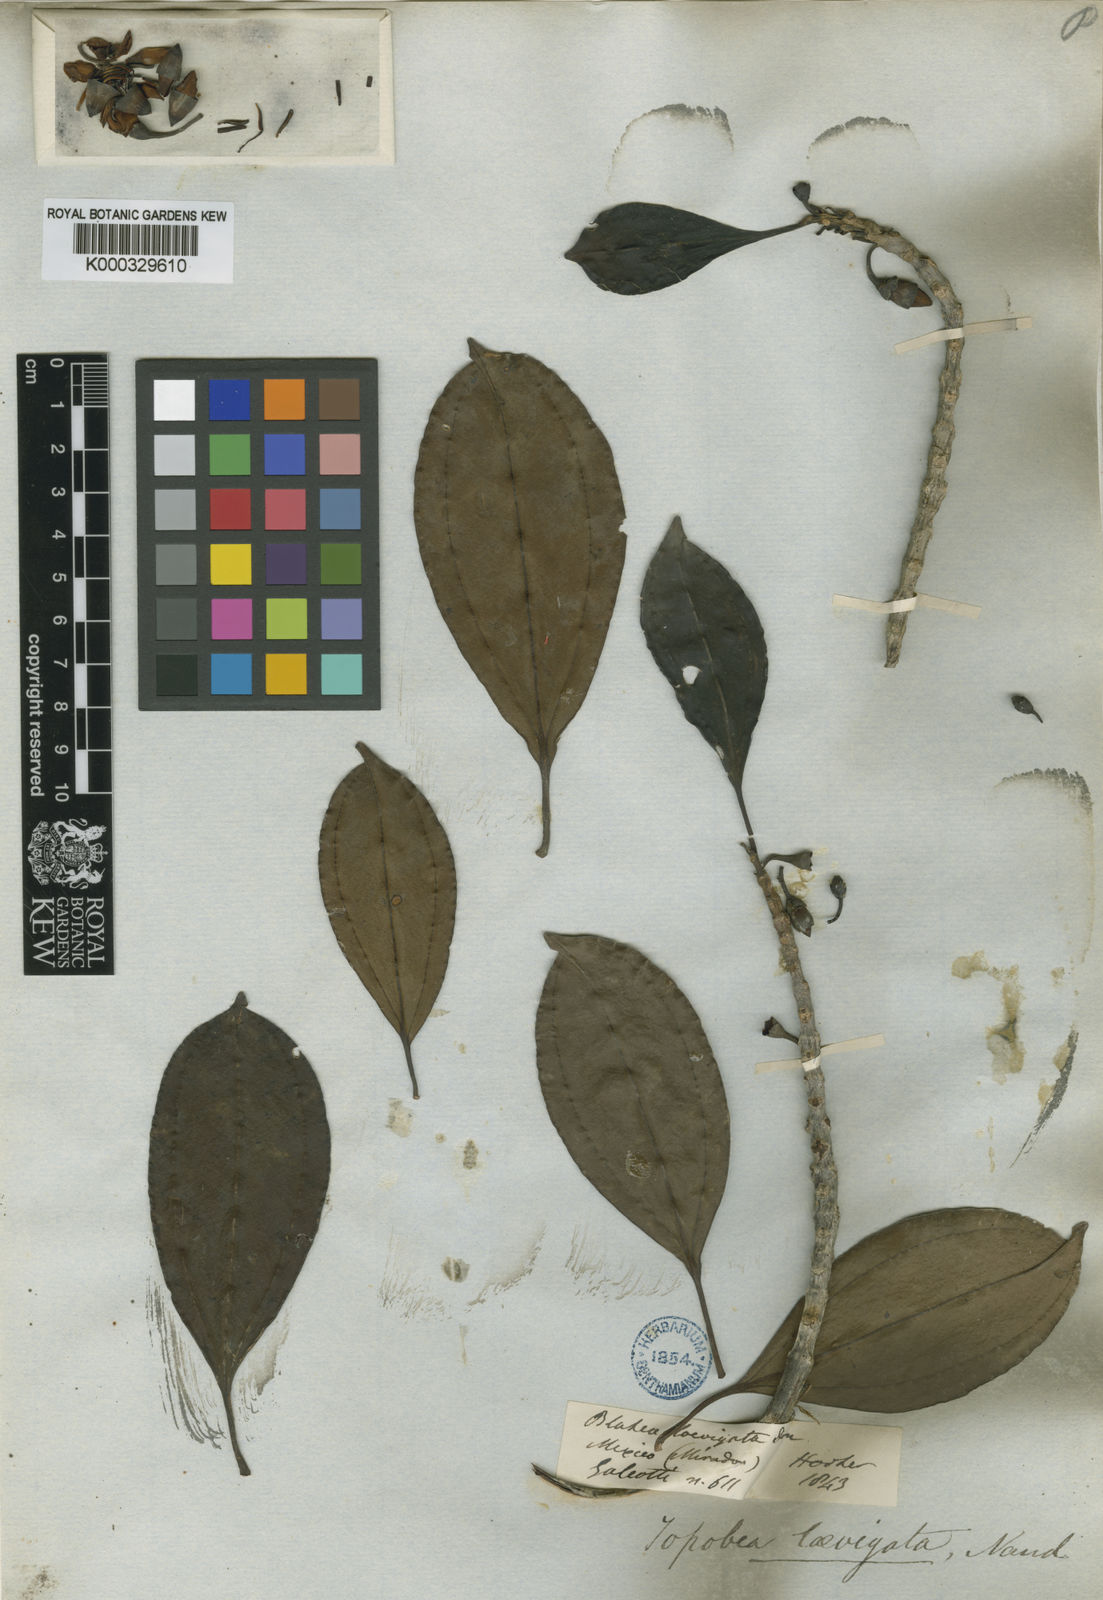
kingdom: Plantae
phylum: Tracheophyta
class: Magnoliopsida
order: Myrtales
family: Melastomataceae
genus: Blakea
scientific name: Blakea laevigata
